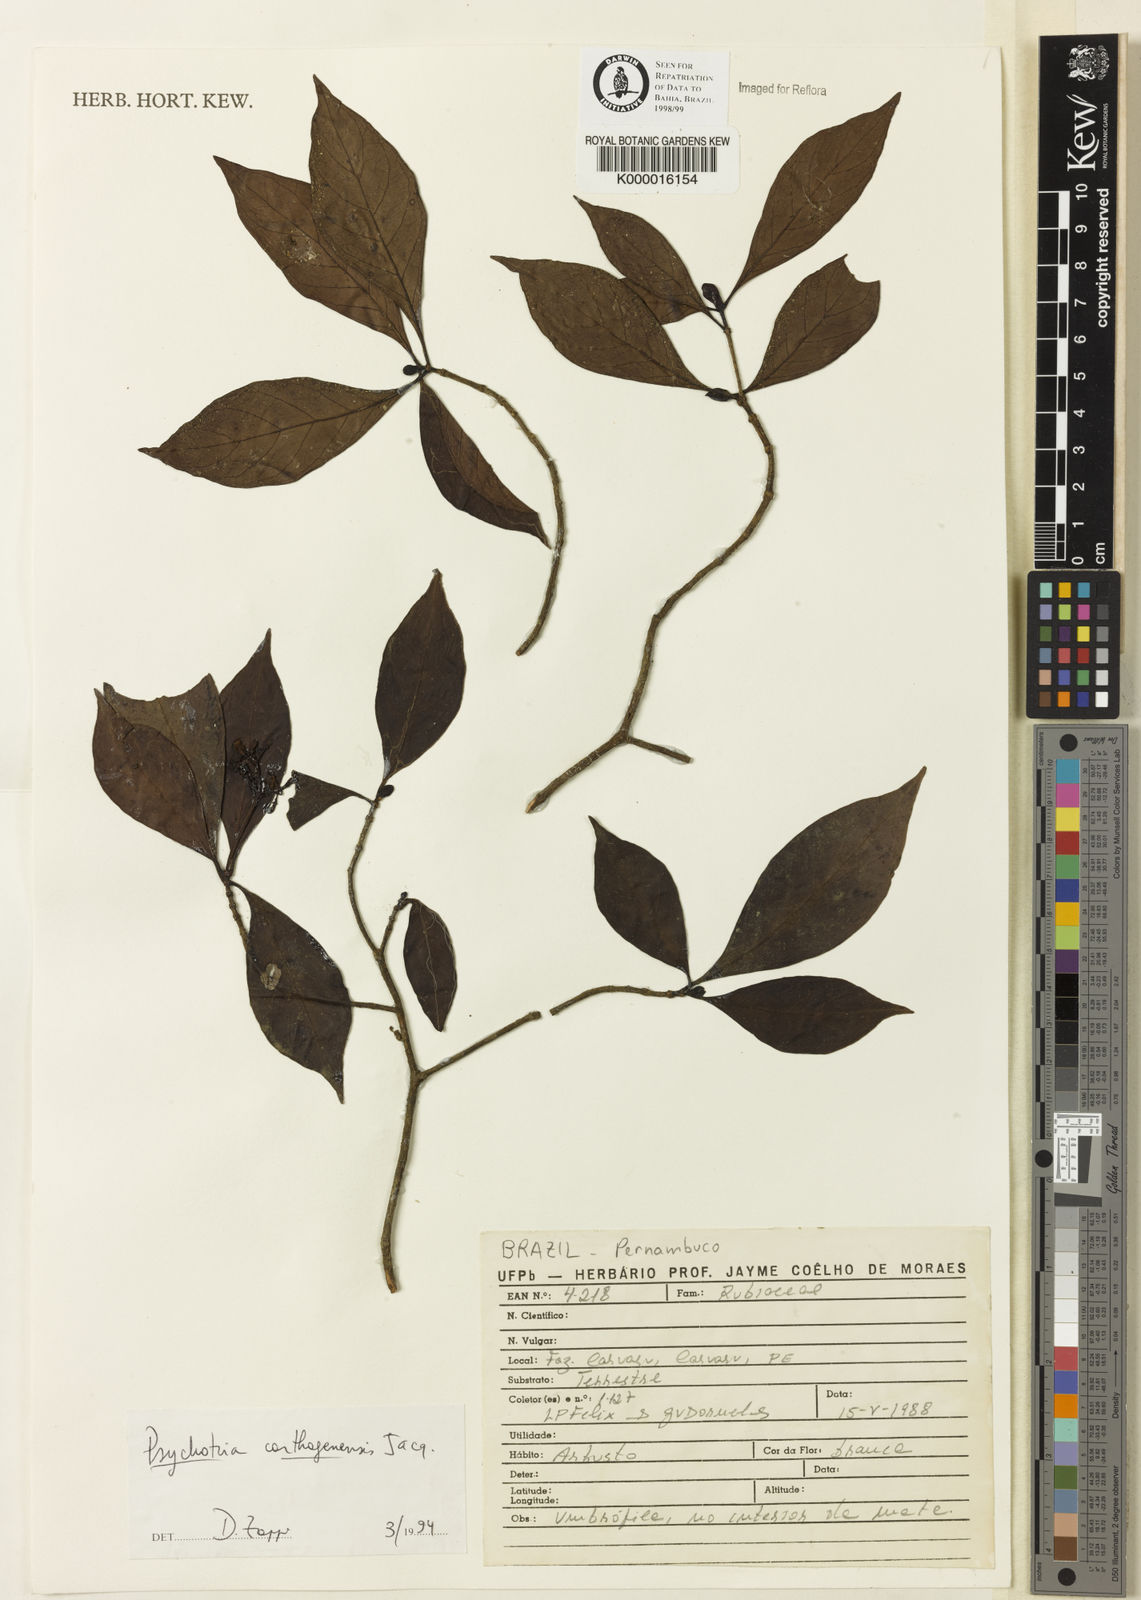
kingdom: Plantae
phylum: Tracheophyta
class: Magnoliopsida
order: Gentianales
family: Rubiaceae
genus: Psychotria
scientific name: Psychotria carthagenensis
